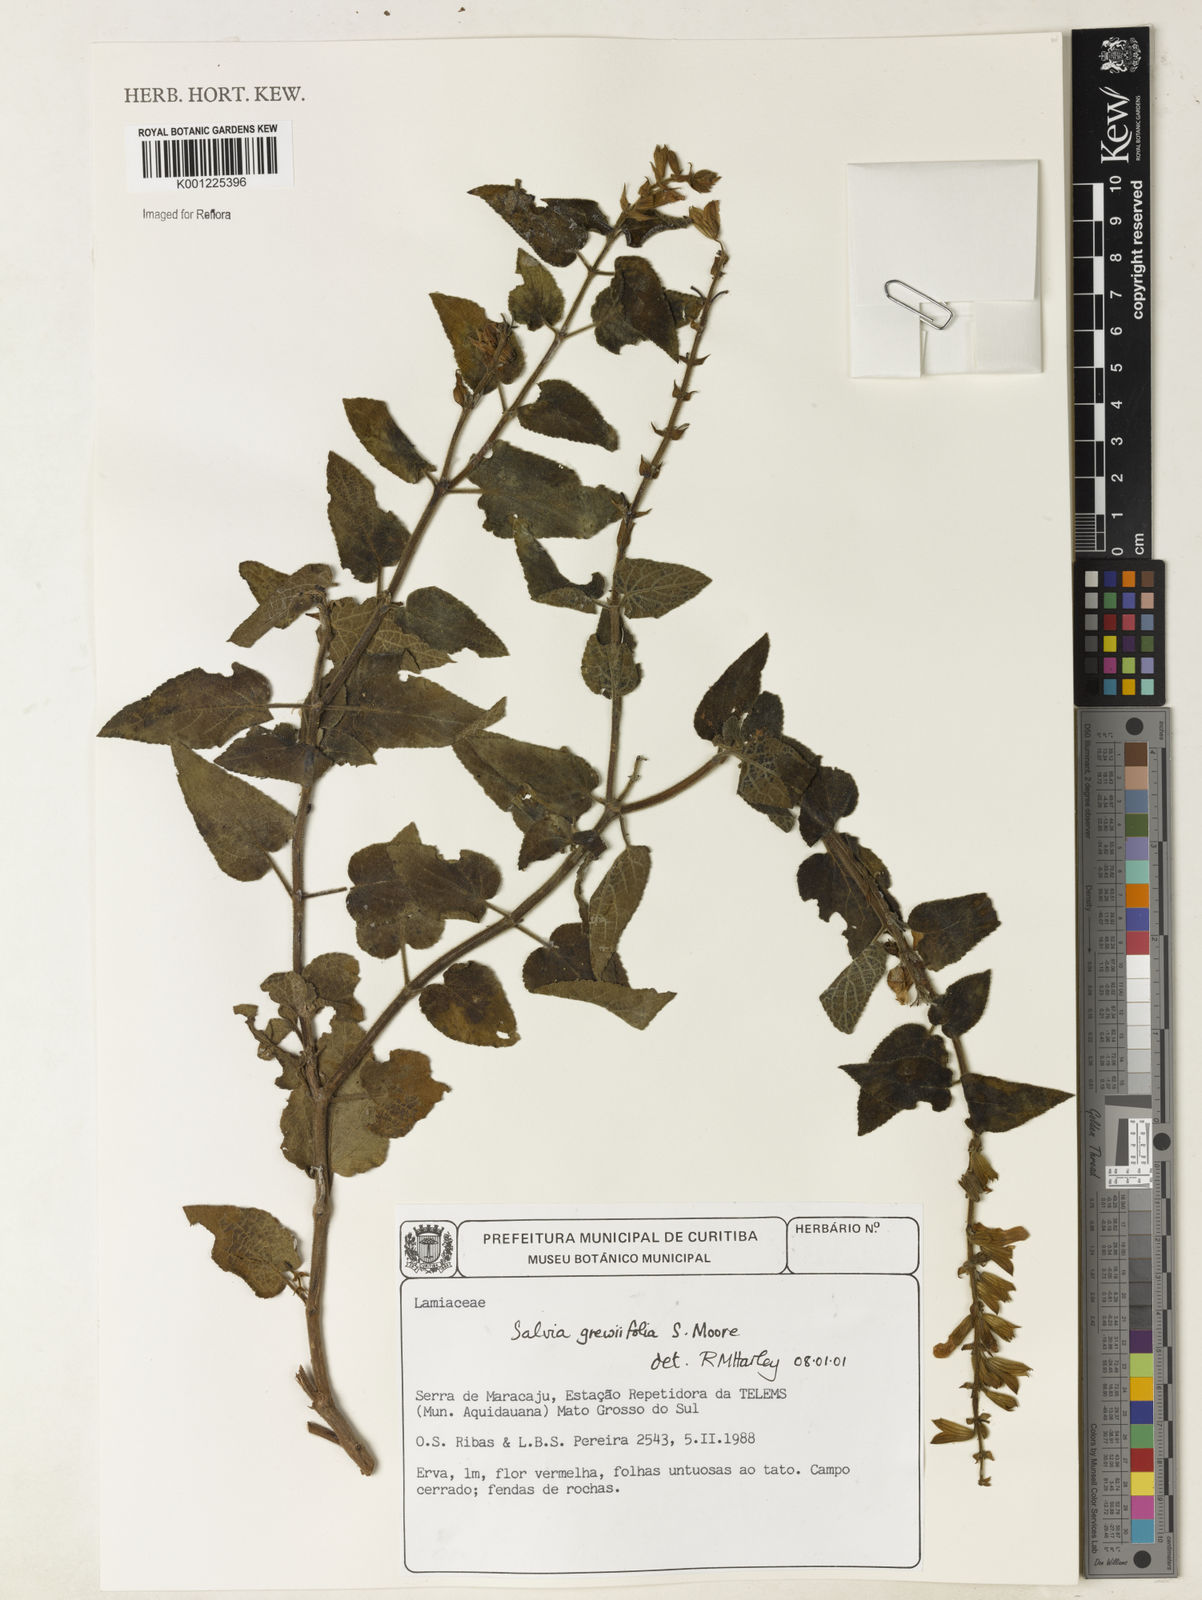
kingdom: Plantae
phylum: Tracheophyta
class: Magnoliopsida
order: Lamiales
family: Lamiaceae
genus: Salvia
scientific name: Salvia grewiifolia
